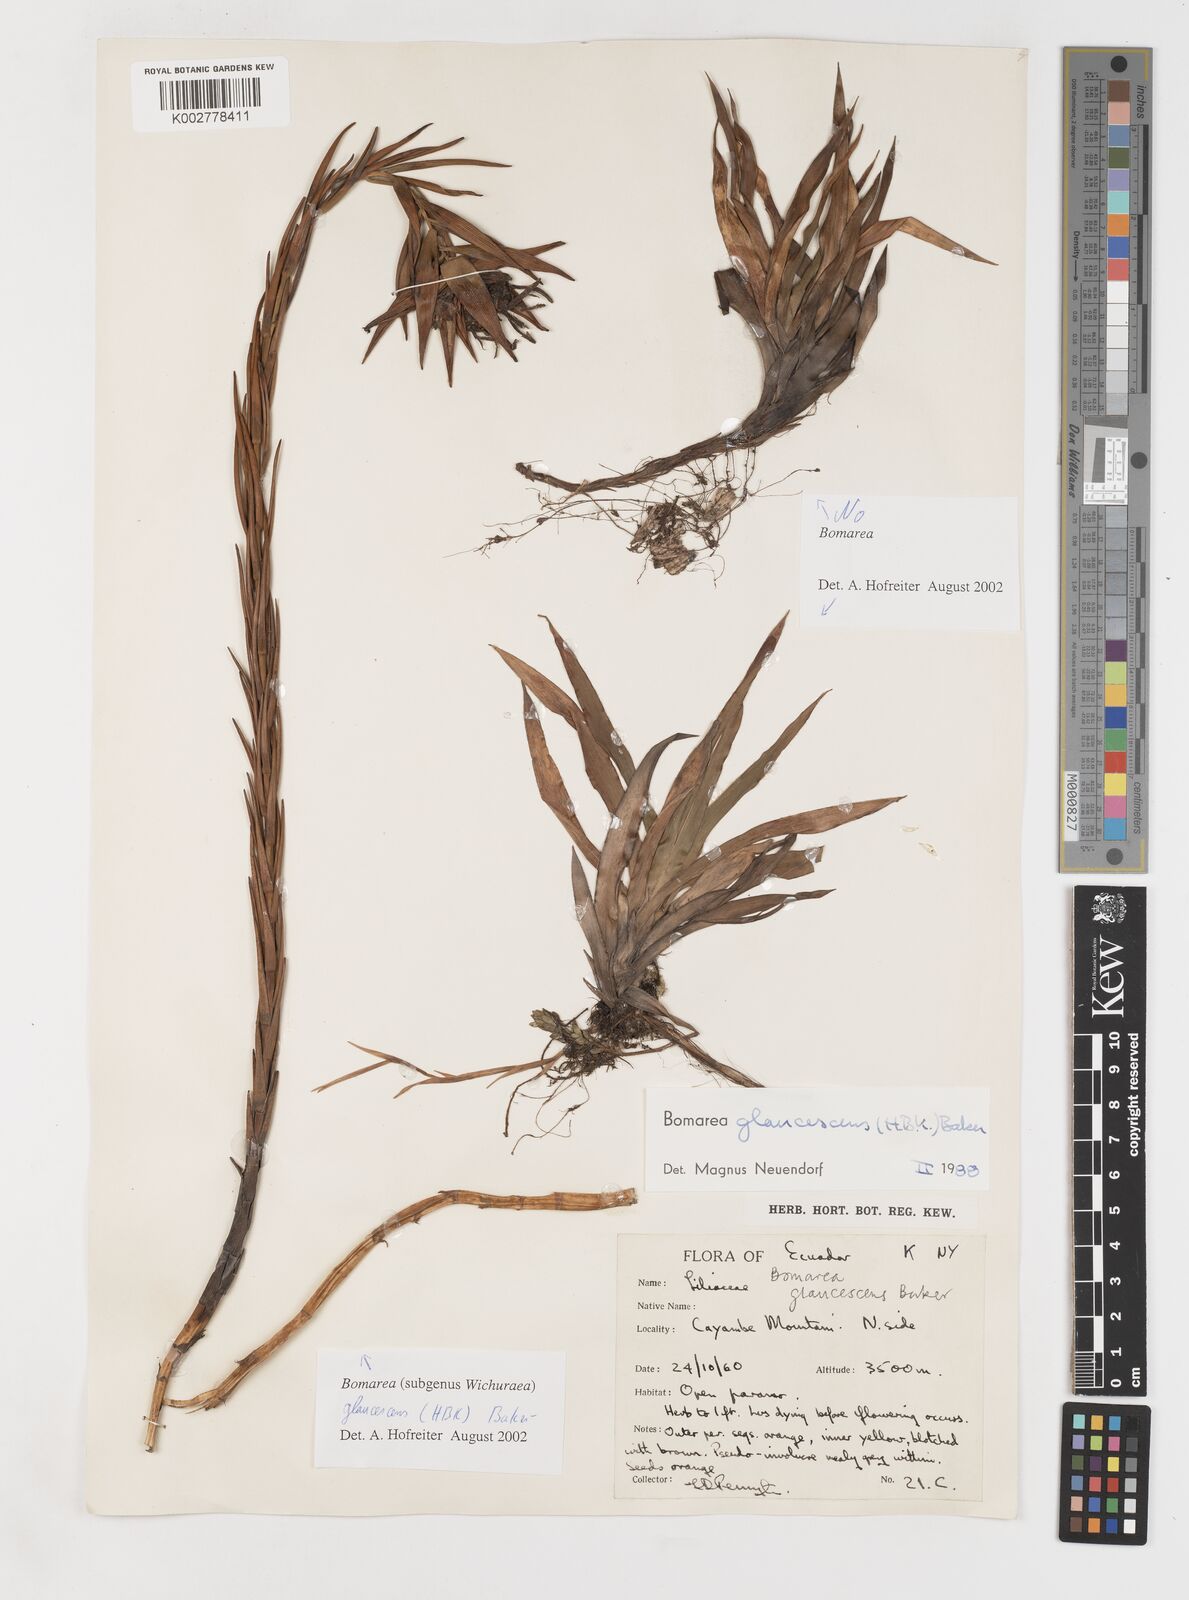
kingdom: Plantae
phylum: Tracheophyta
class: Liliopsida
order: Liliales
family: Alstroemeriaceae
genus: Bomarea
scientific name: Bomarea glaucescens
